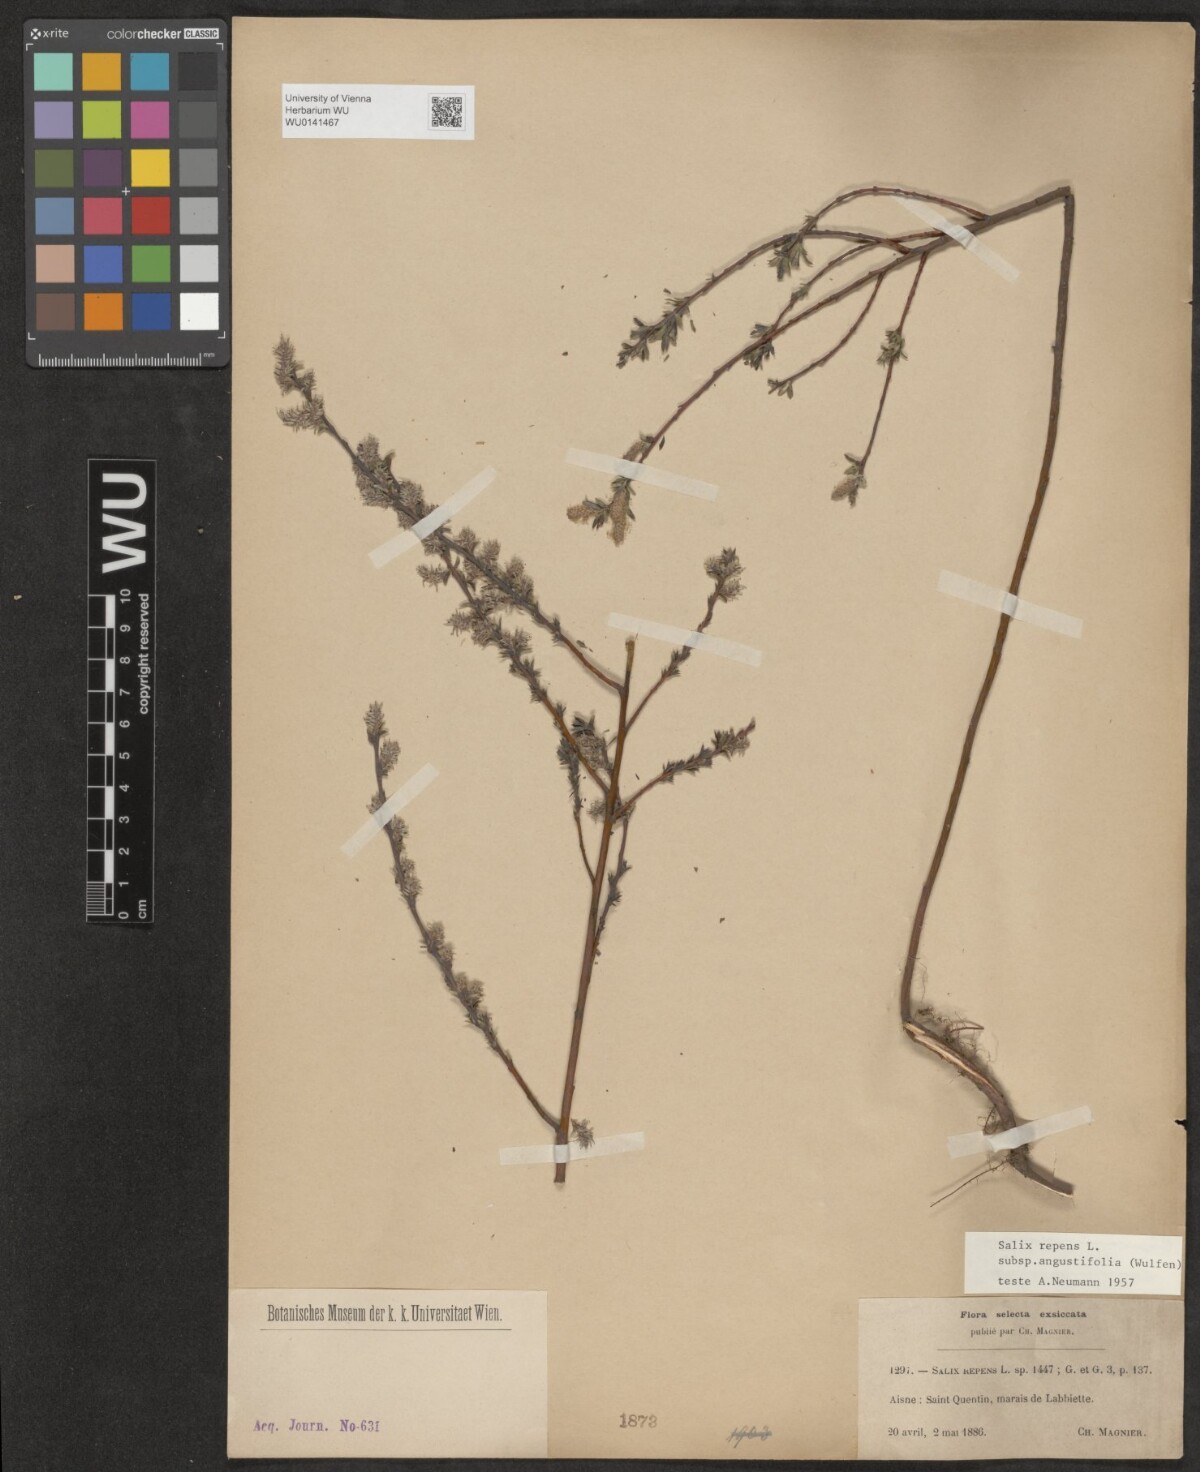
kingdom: Plantae
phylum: Tracheophyta
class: Magnoliopsida
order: Malpighiales
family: Salicaceae
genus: Salix
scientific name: Salix rosmarinifolia
